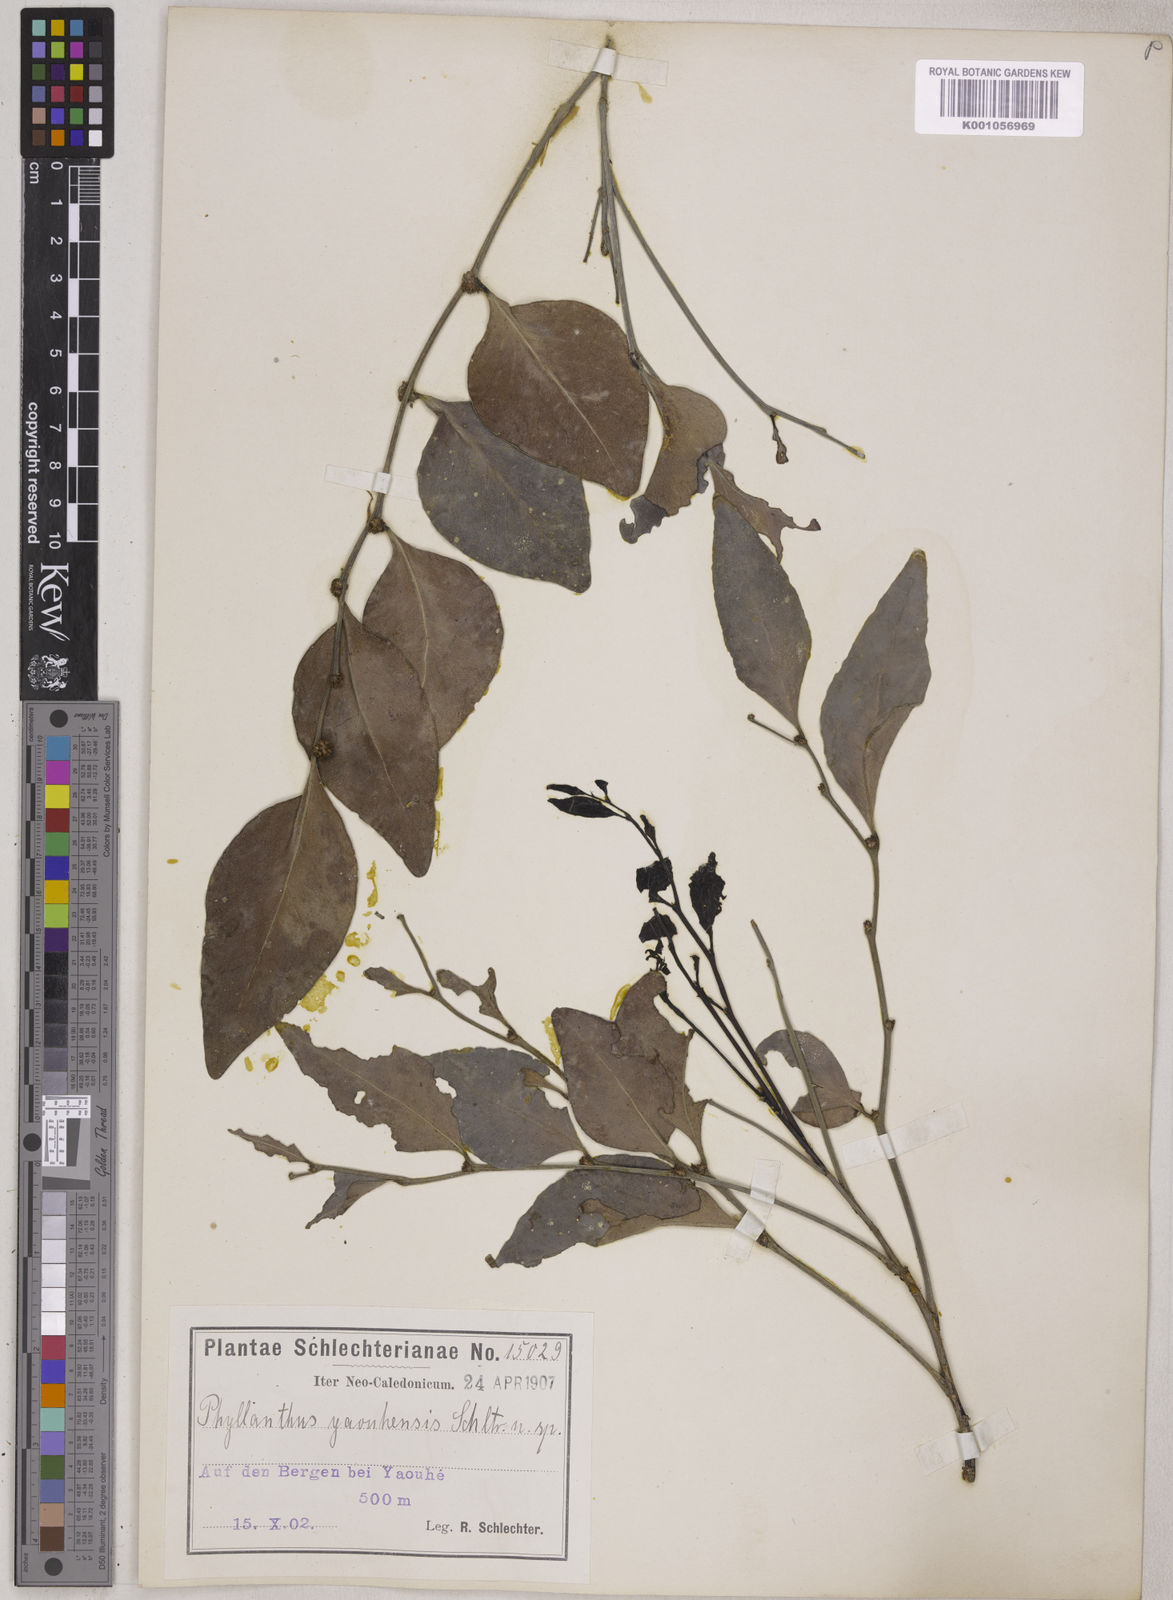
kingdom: Plantae
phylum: Tracheophyta
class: Magnoliopsida
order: Malpighiales
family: Phyllanthaceae
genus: Phyllanthus
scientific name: Phyllanthus yaouhensis
